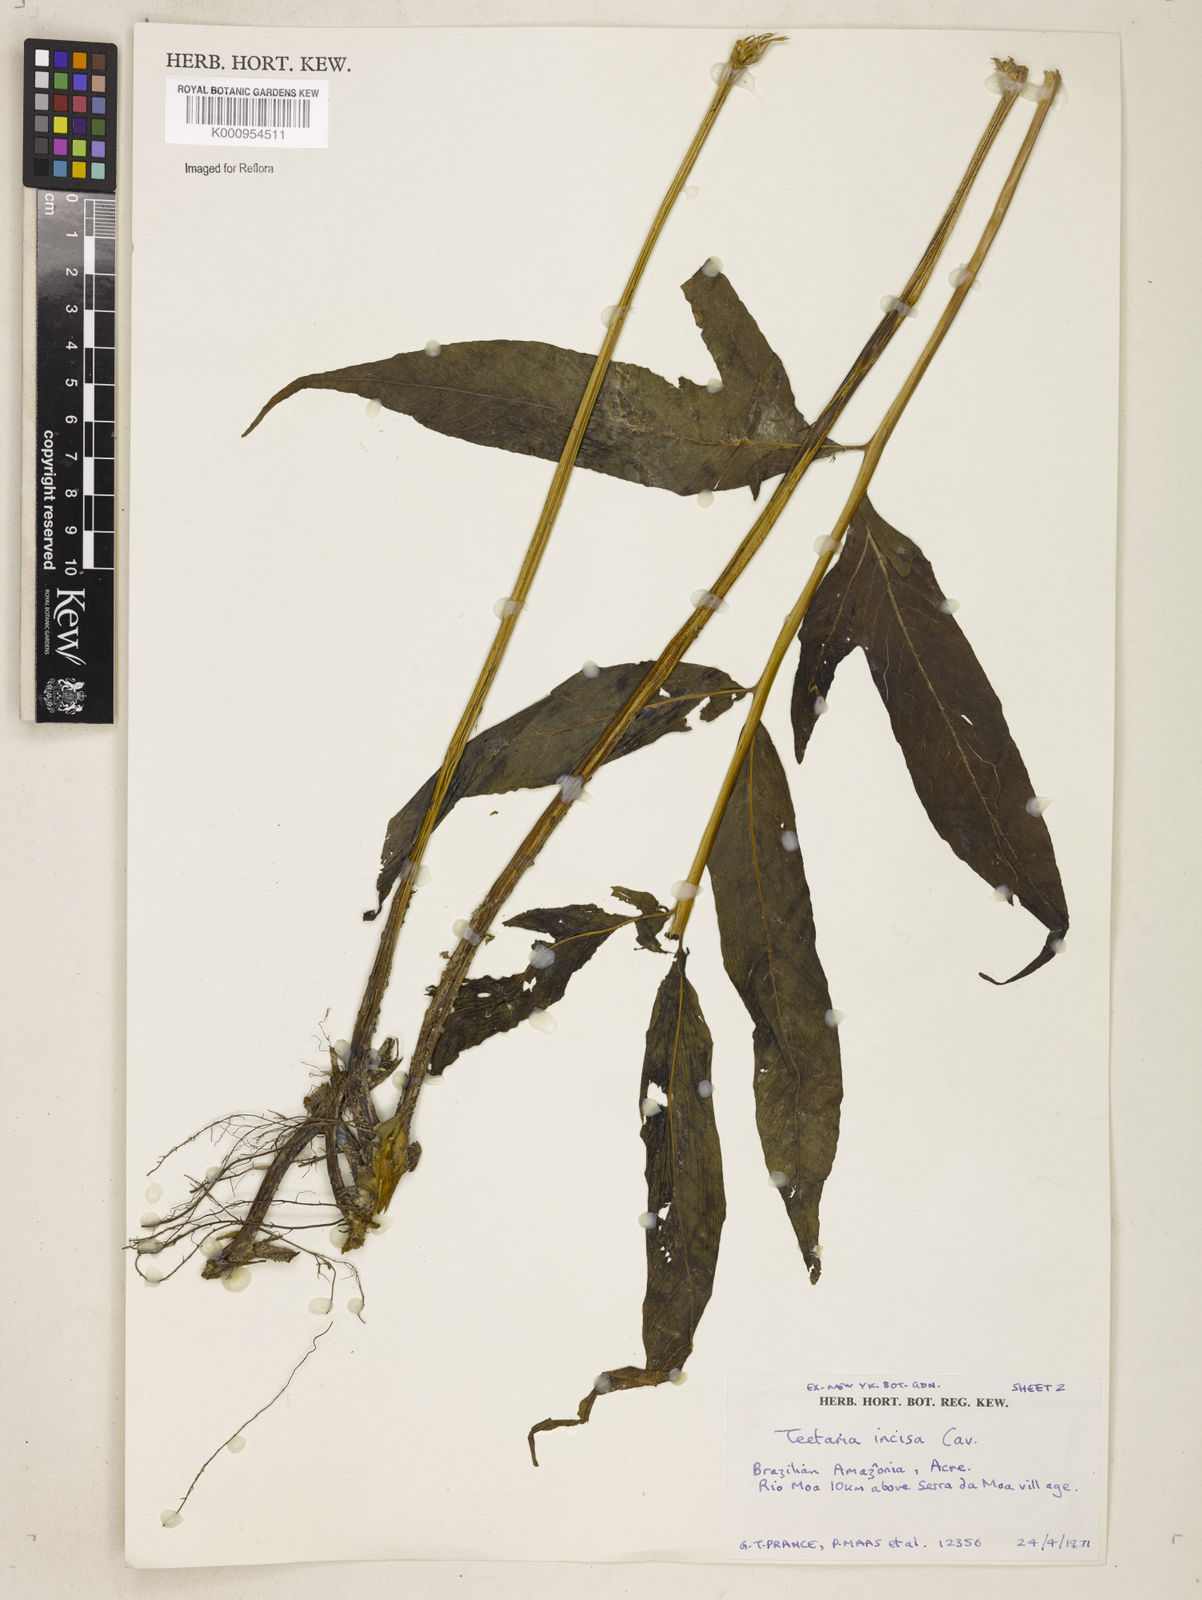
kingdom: Plantae
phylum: Tracheophyta
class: Polypodiopsida
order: Polypodiales
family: Tectariaceae
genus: Tectaria
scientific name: Tectaria incisa
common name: Incised halberd fern
